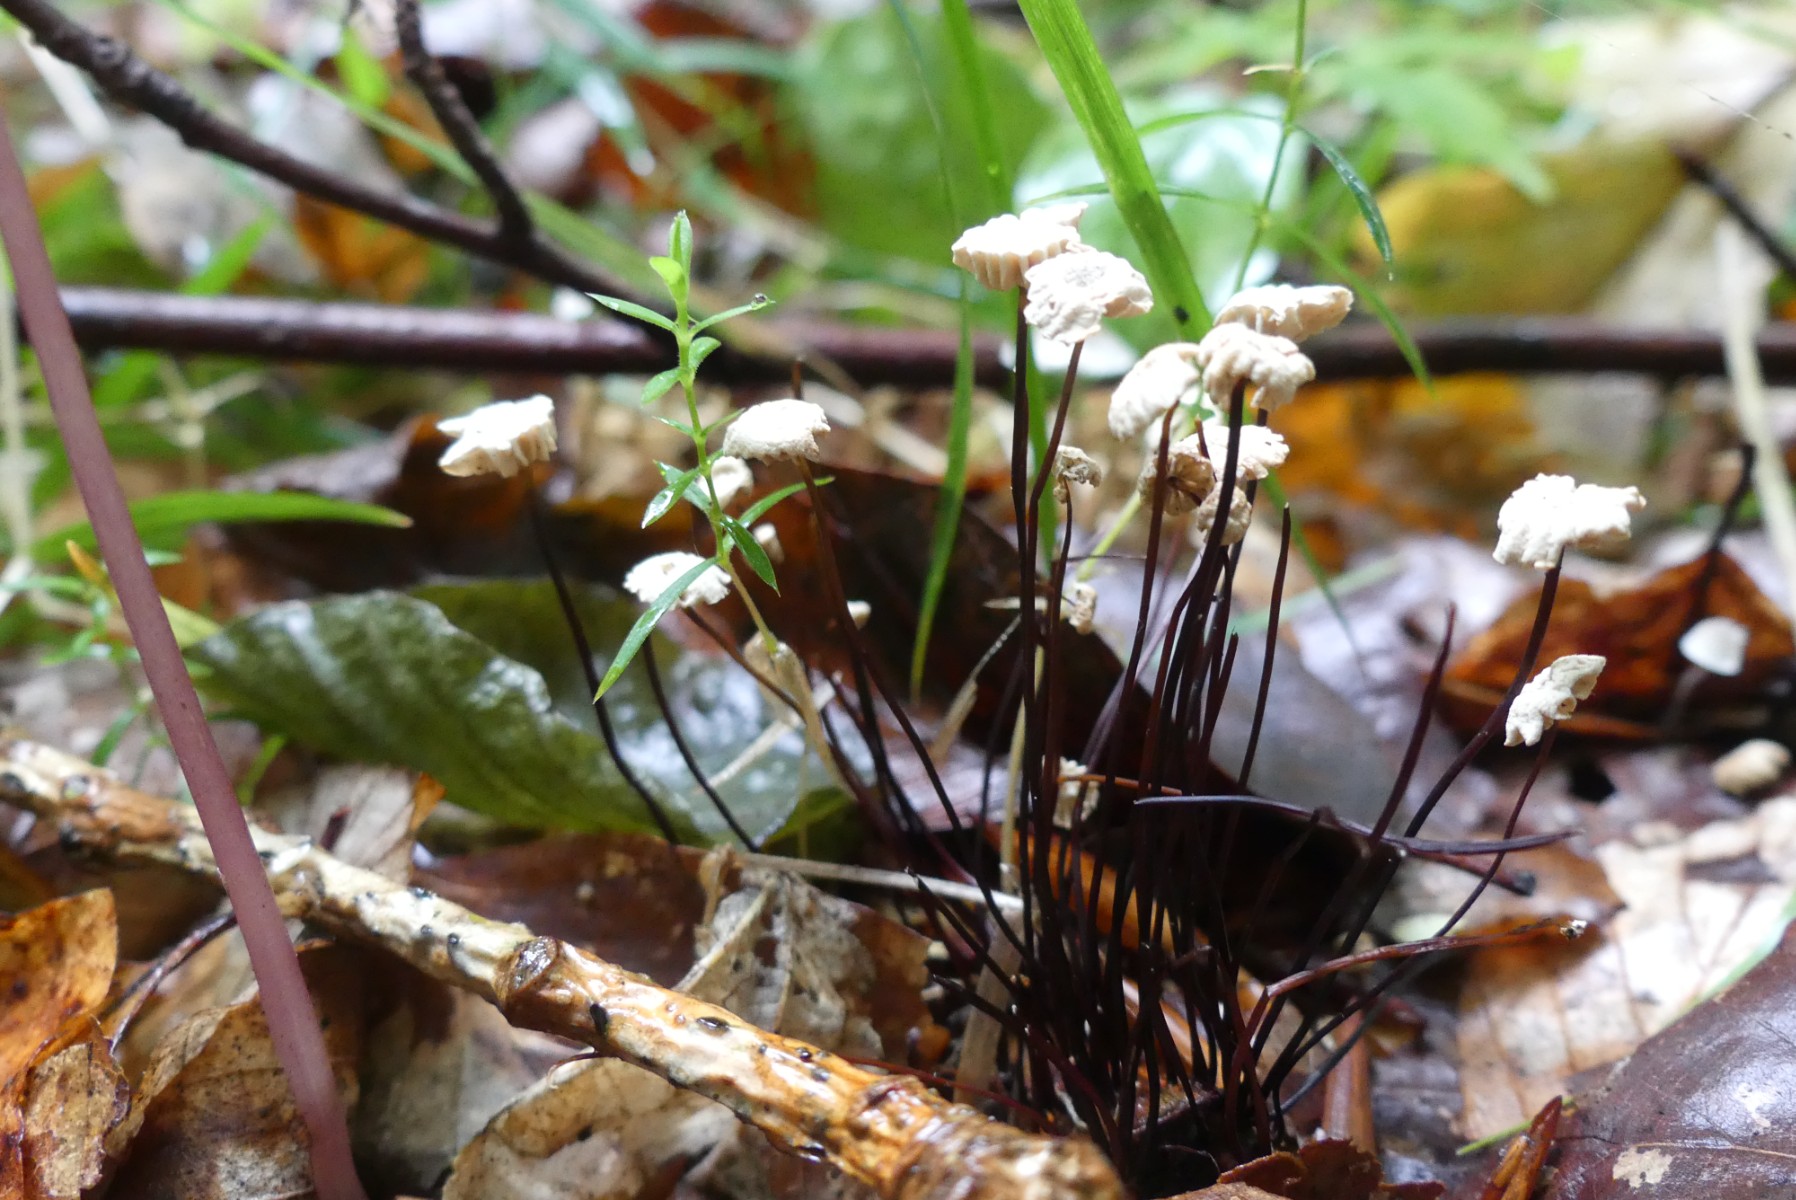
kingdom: Fungi
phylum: Basidiomycota
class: Agaricomycetes
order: Agaricales
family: Marasmiaceae
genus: Marasmius
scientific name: Marasmius rotula
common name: hjul-bruskhat
